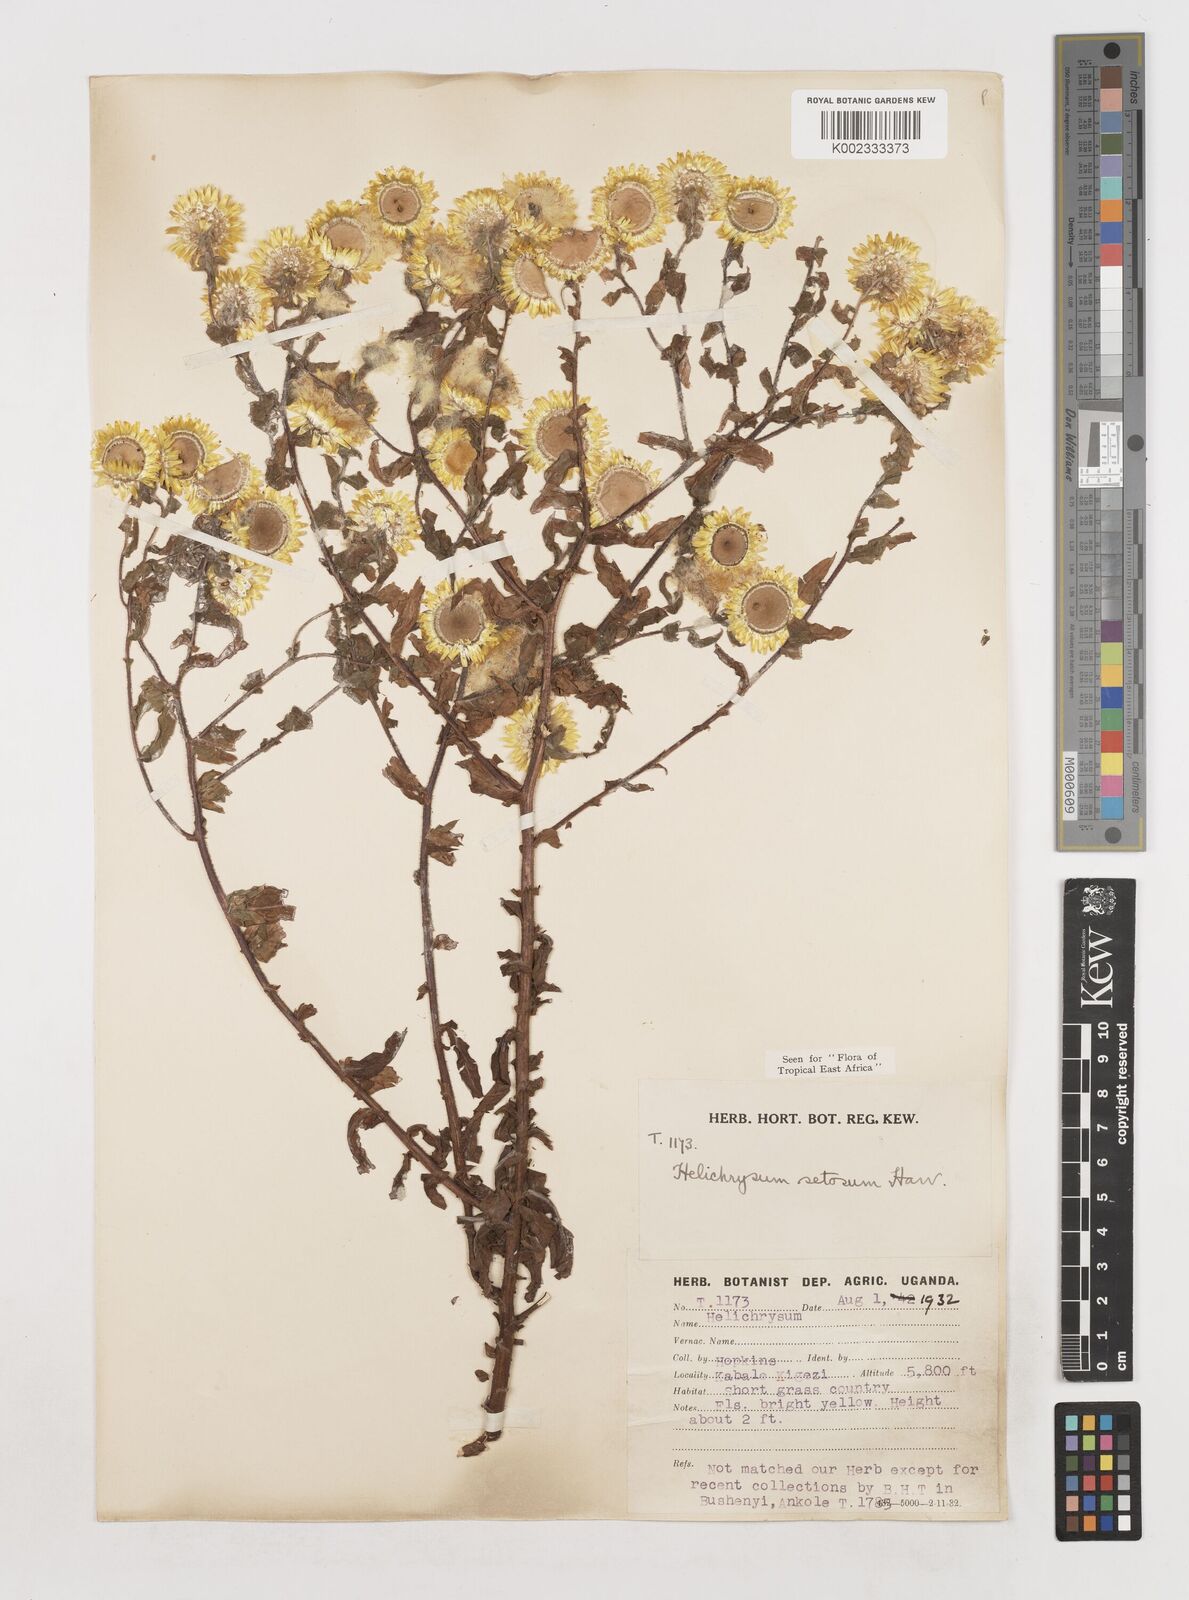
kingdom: Plantae
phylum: Tracheophyta
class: Magnoliopsida
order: Asterales
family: Asteraceae
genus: Helichrysum
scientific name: Helichrysum setosum
